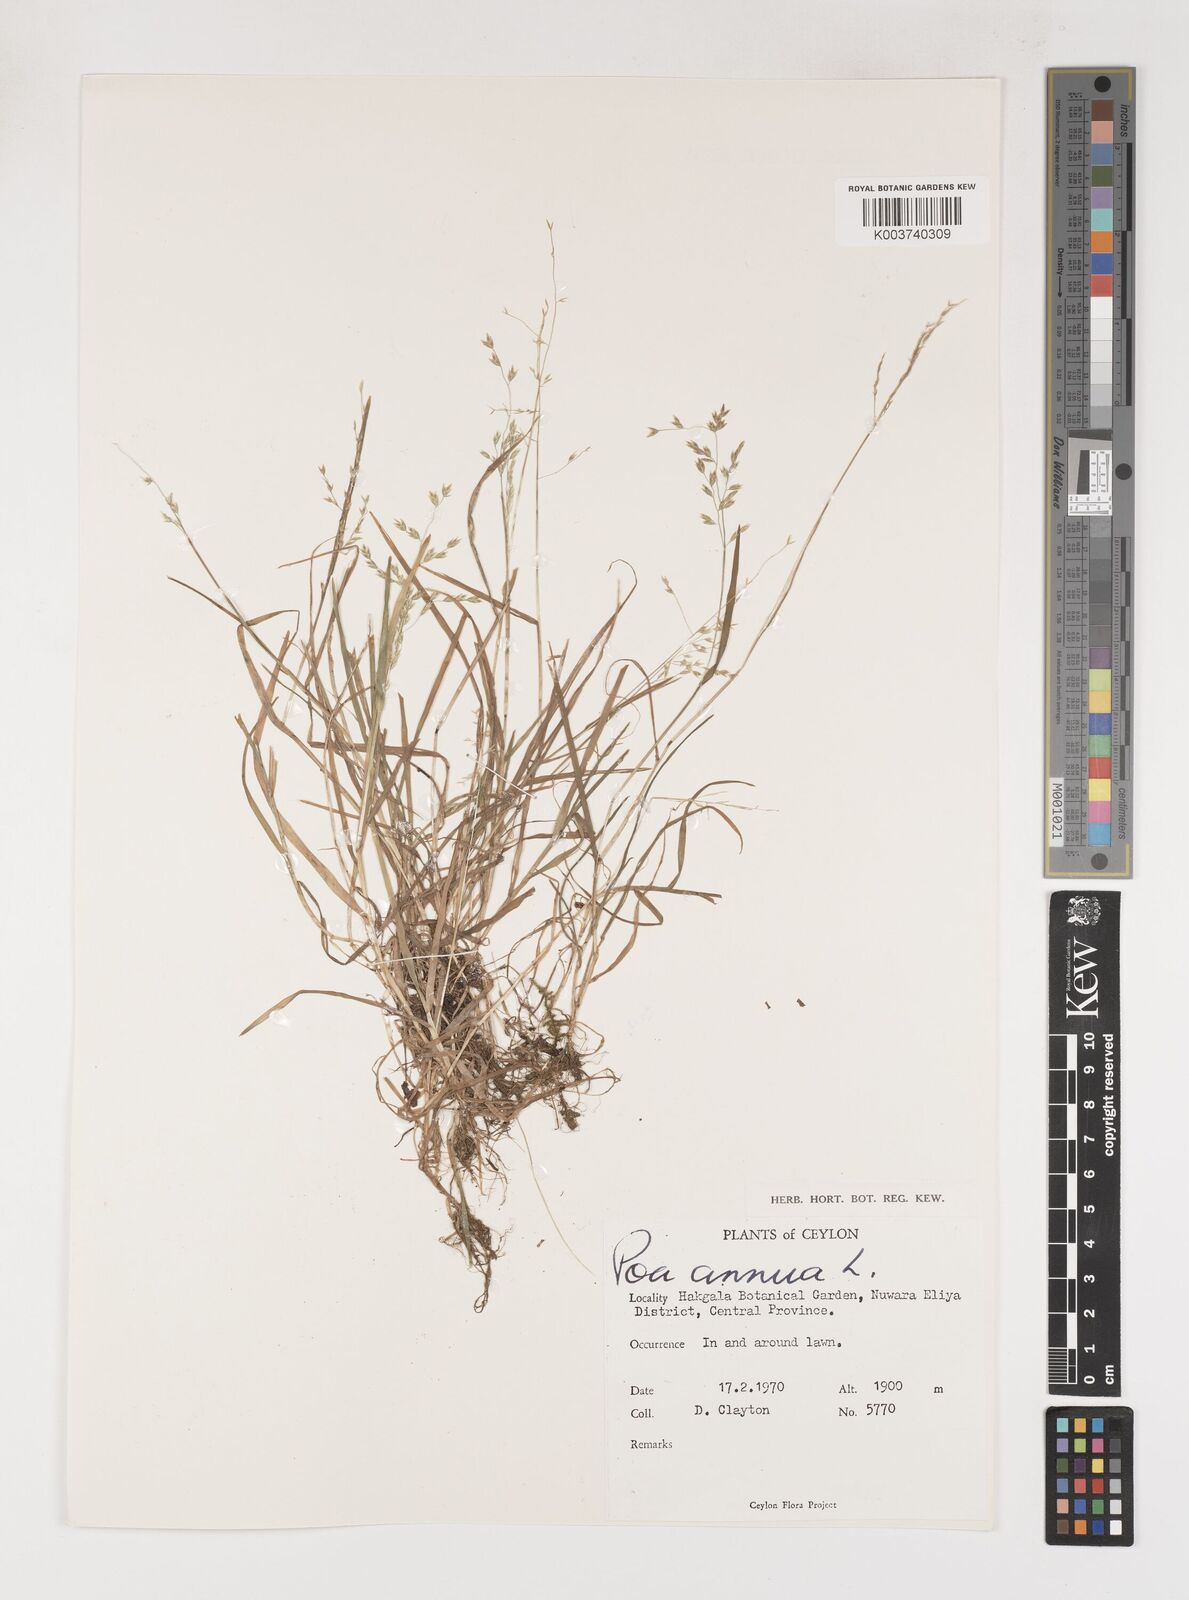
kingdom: Plantae
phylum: Tracheophyta
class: Liliopsida
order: Poales
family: Poaceae
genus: Poa
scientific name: Poa annua
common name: Annual bluegrass
